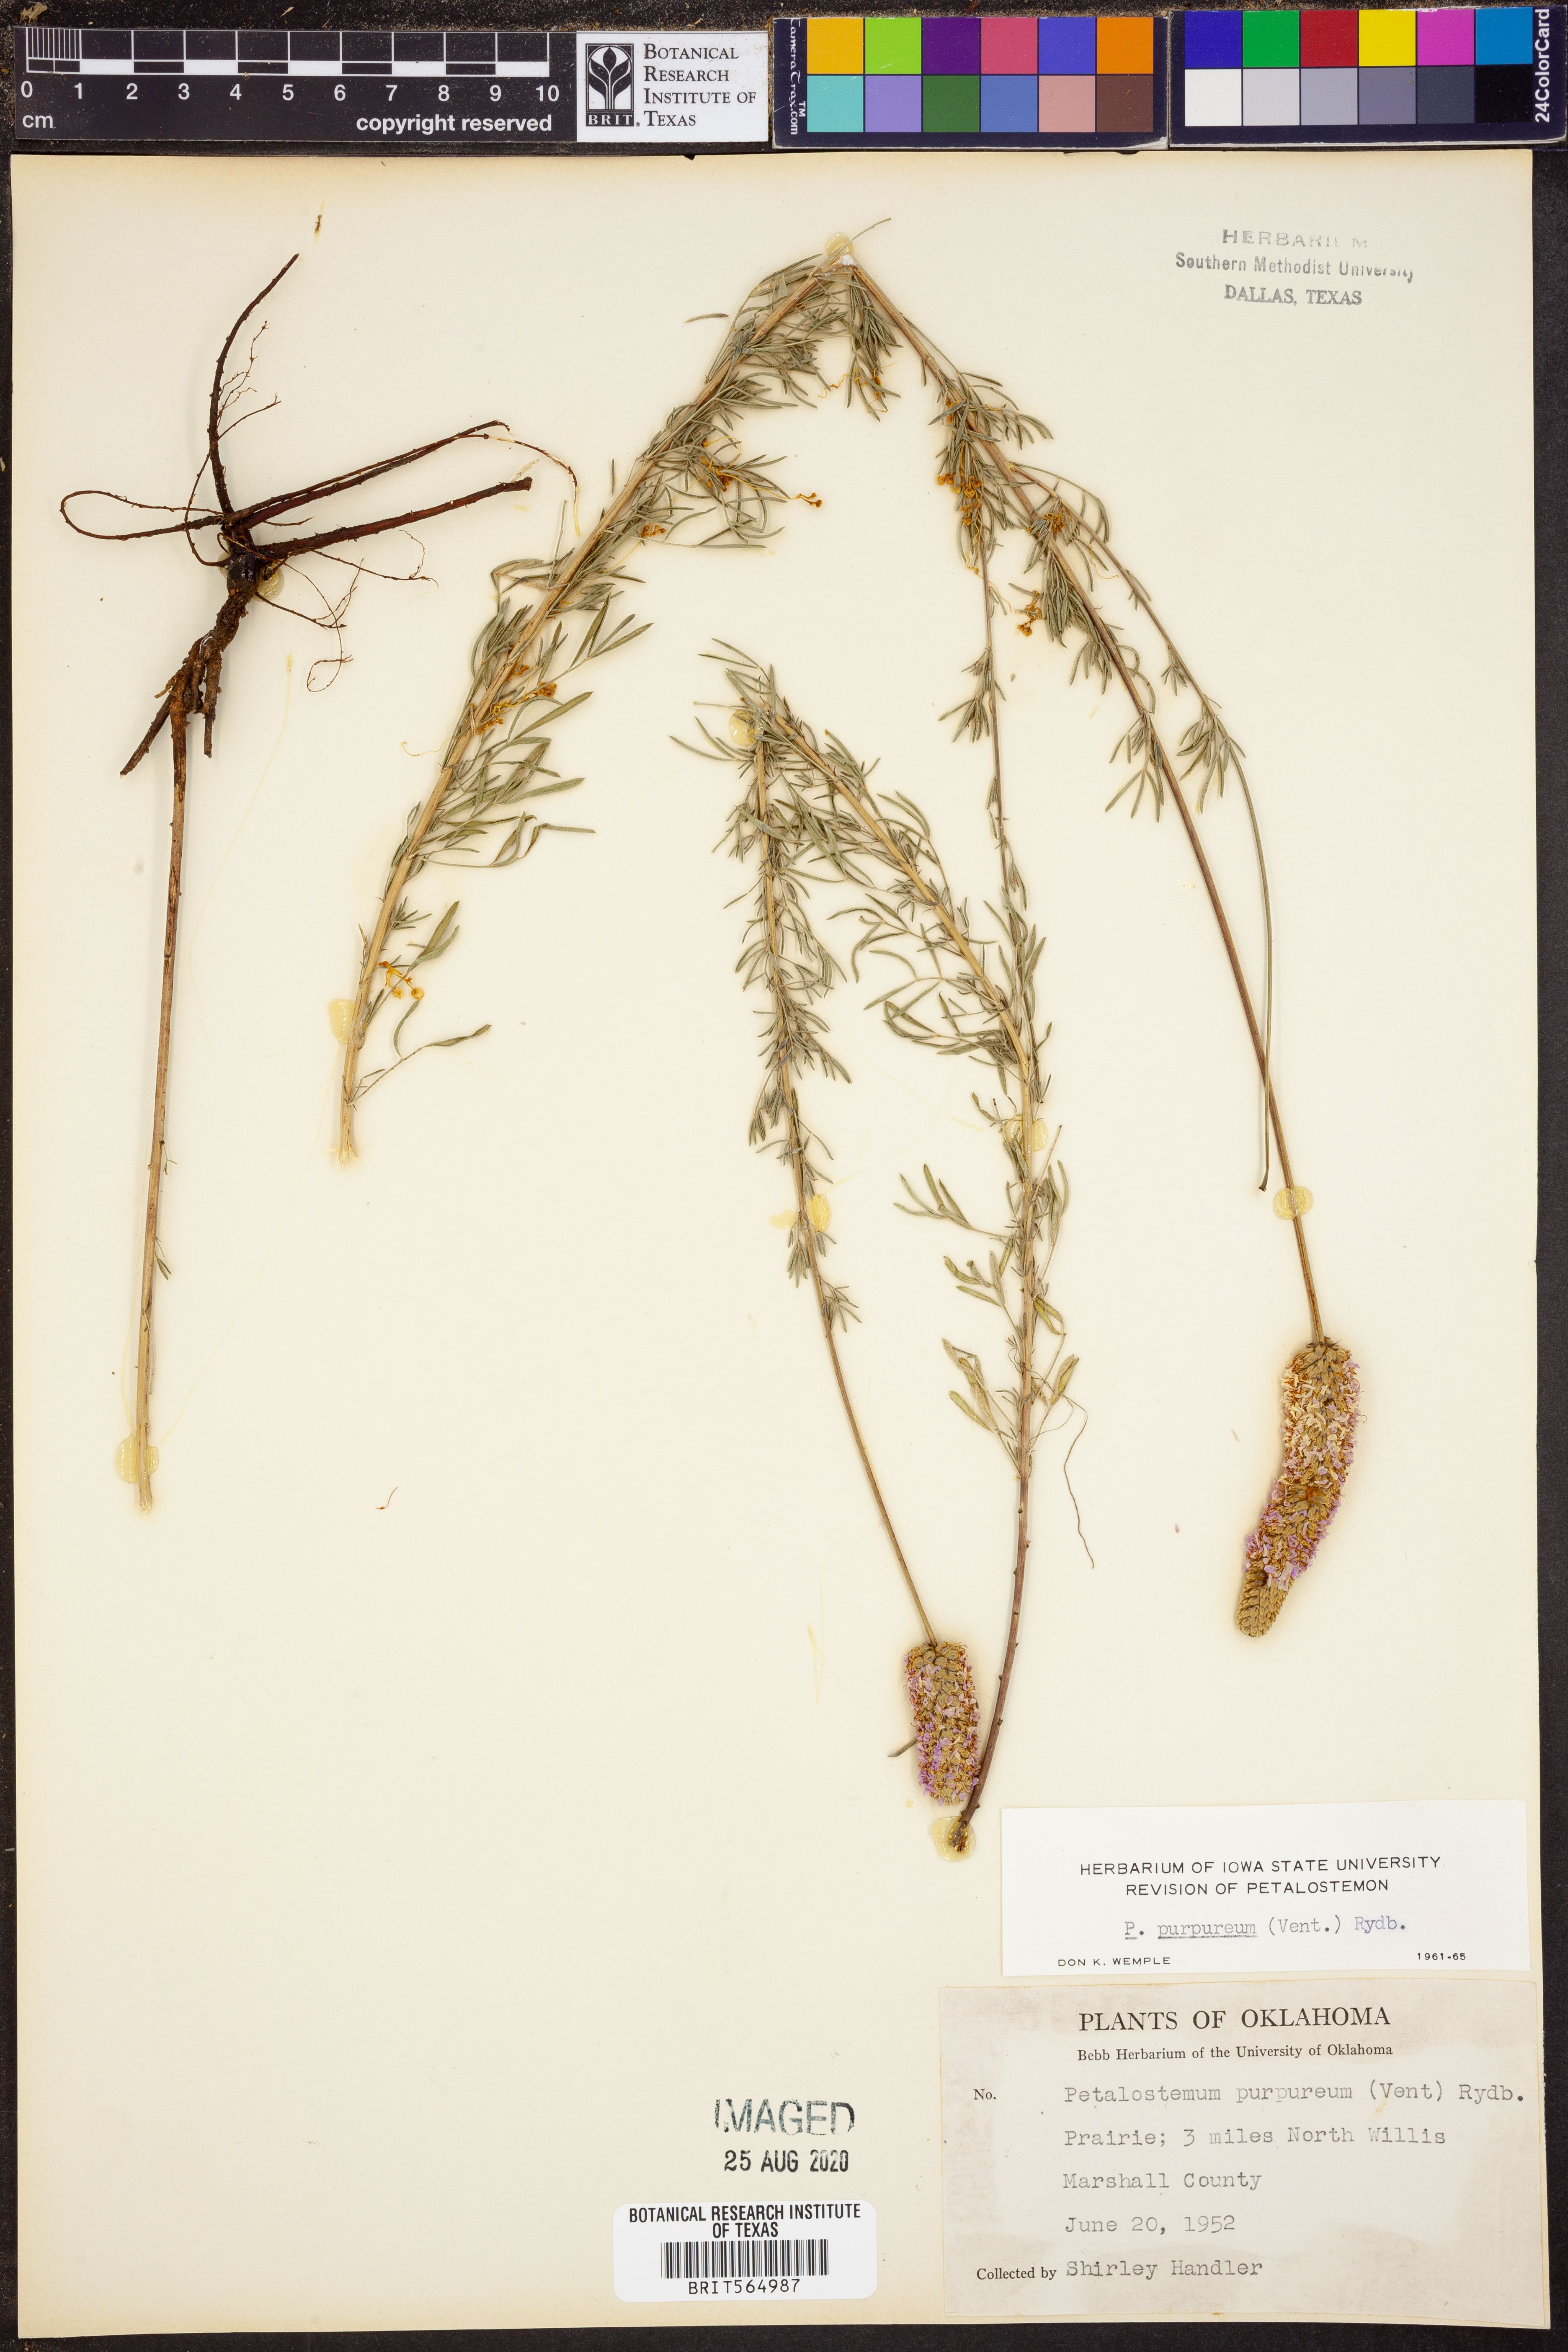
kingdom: Plantae
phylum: Tracheophyta
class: Magnoliopsida
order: Fabales
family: Fabaceae
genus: Dalea
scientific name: Dalea purpurea
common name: Purple prairie-clover
